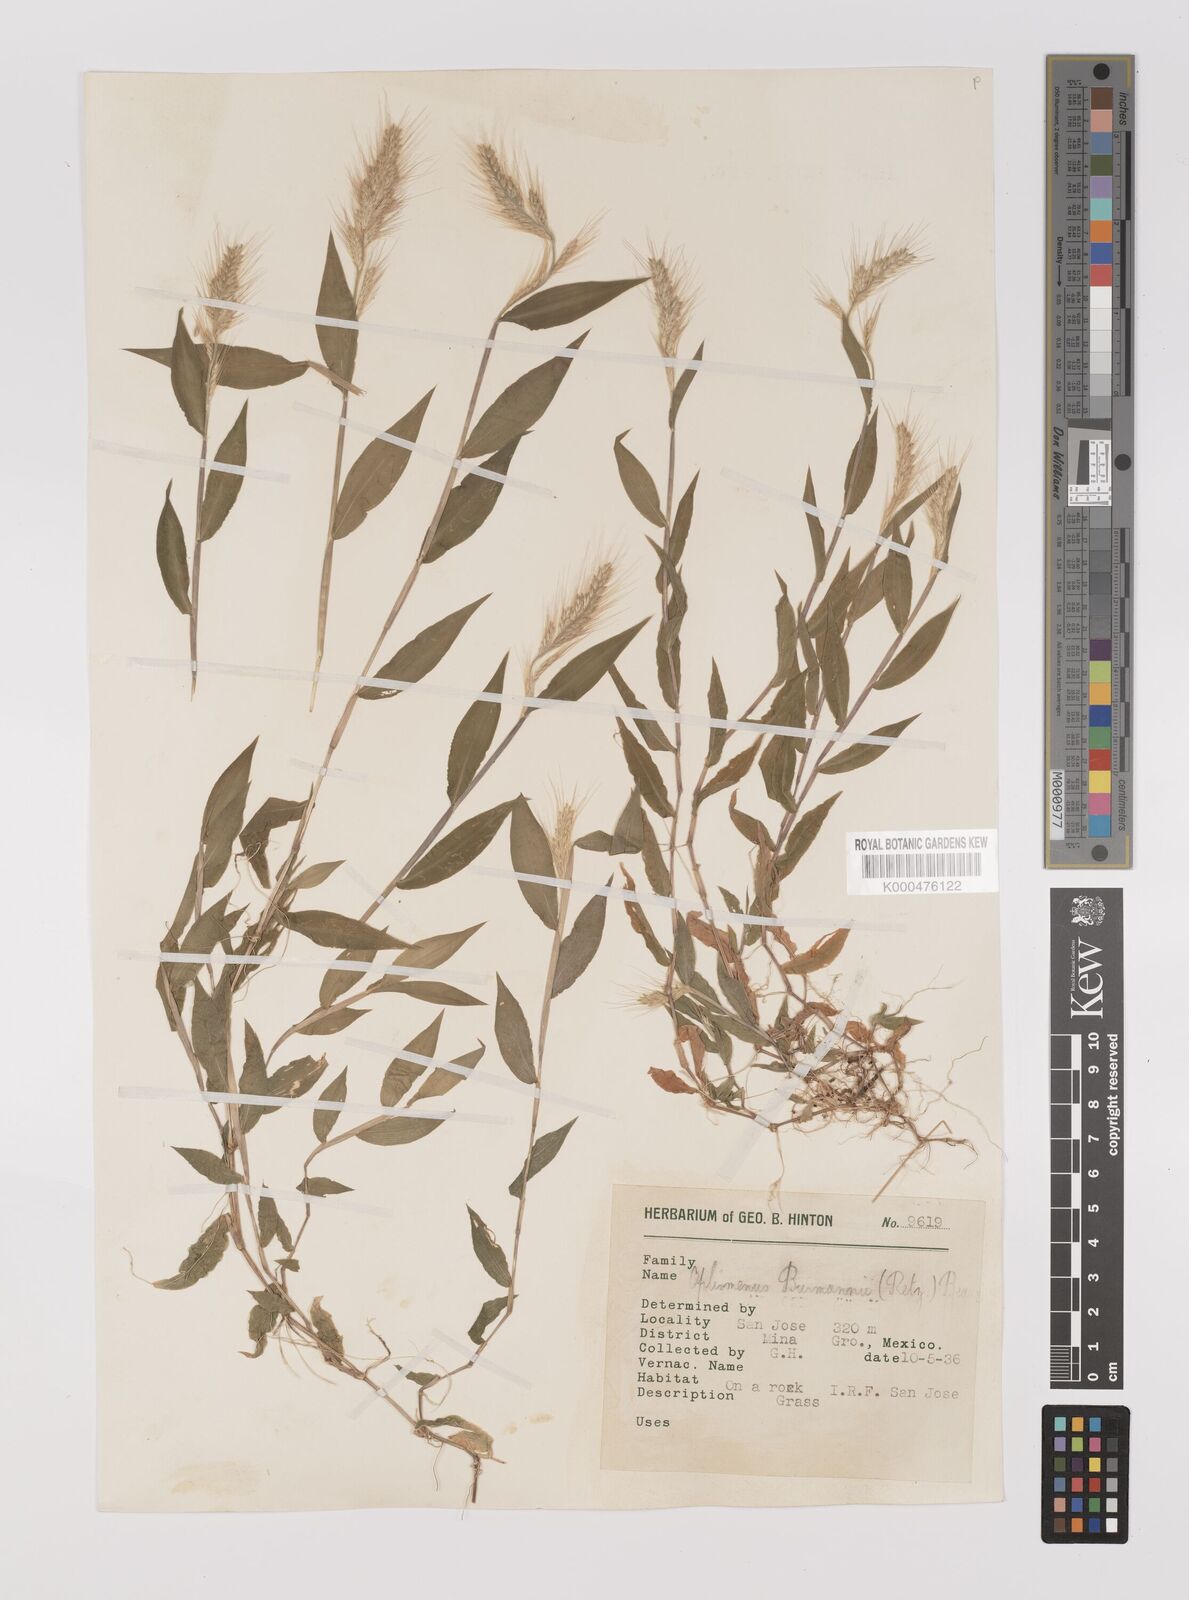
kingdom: Plantae
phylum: Tracheophyta
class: Liliopsida
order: Poales
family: Poaceae
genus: Oplismenus
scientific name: Oplismenus burmanni
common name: Burmann's basketgrass
